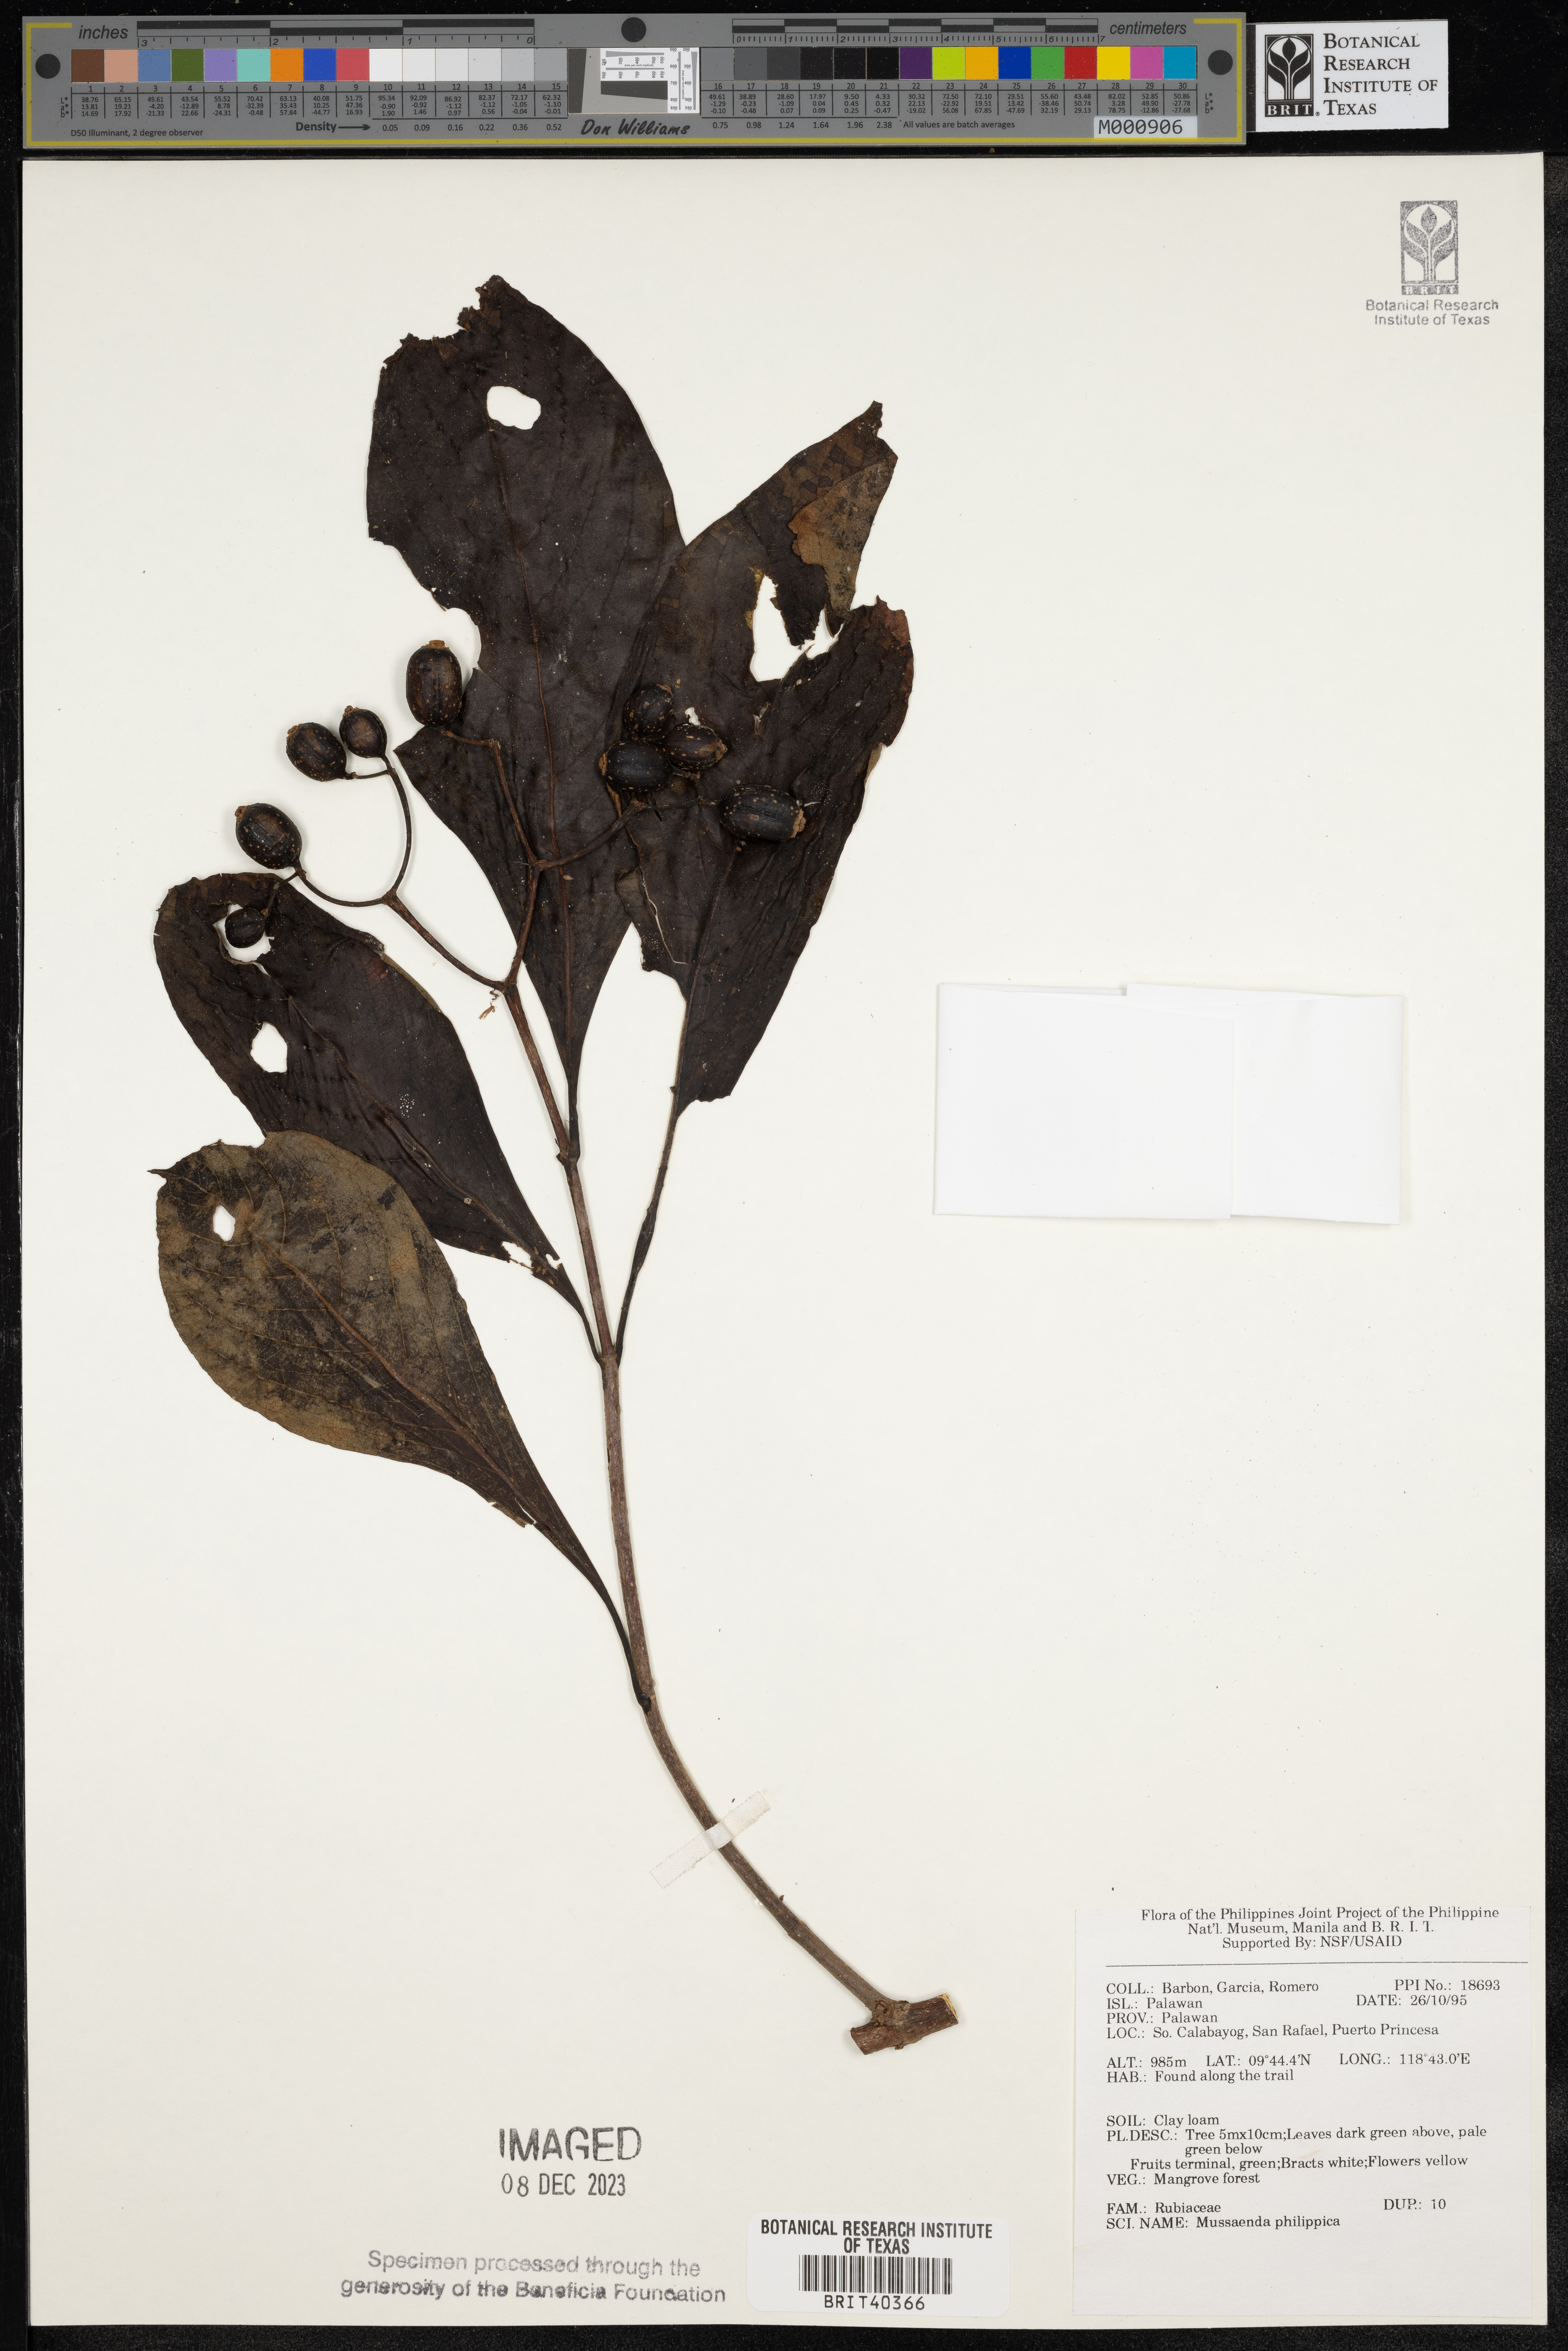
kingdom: Plantae
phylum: Tracheophyta
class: Magnoliopsida
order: Gentianales
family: Rubiaceae
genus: Mussaenda
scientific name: Mussaenda philippica
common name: Philippine mussaenda
